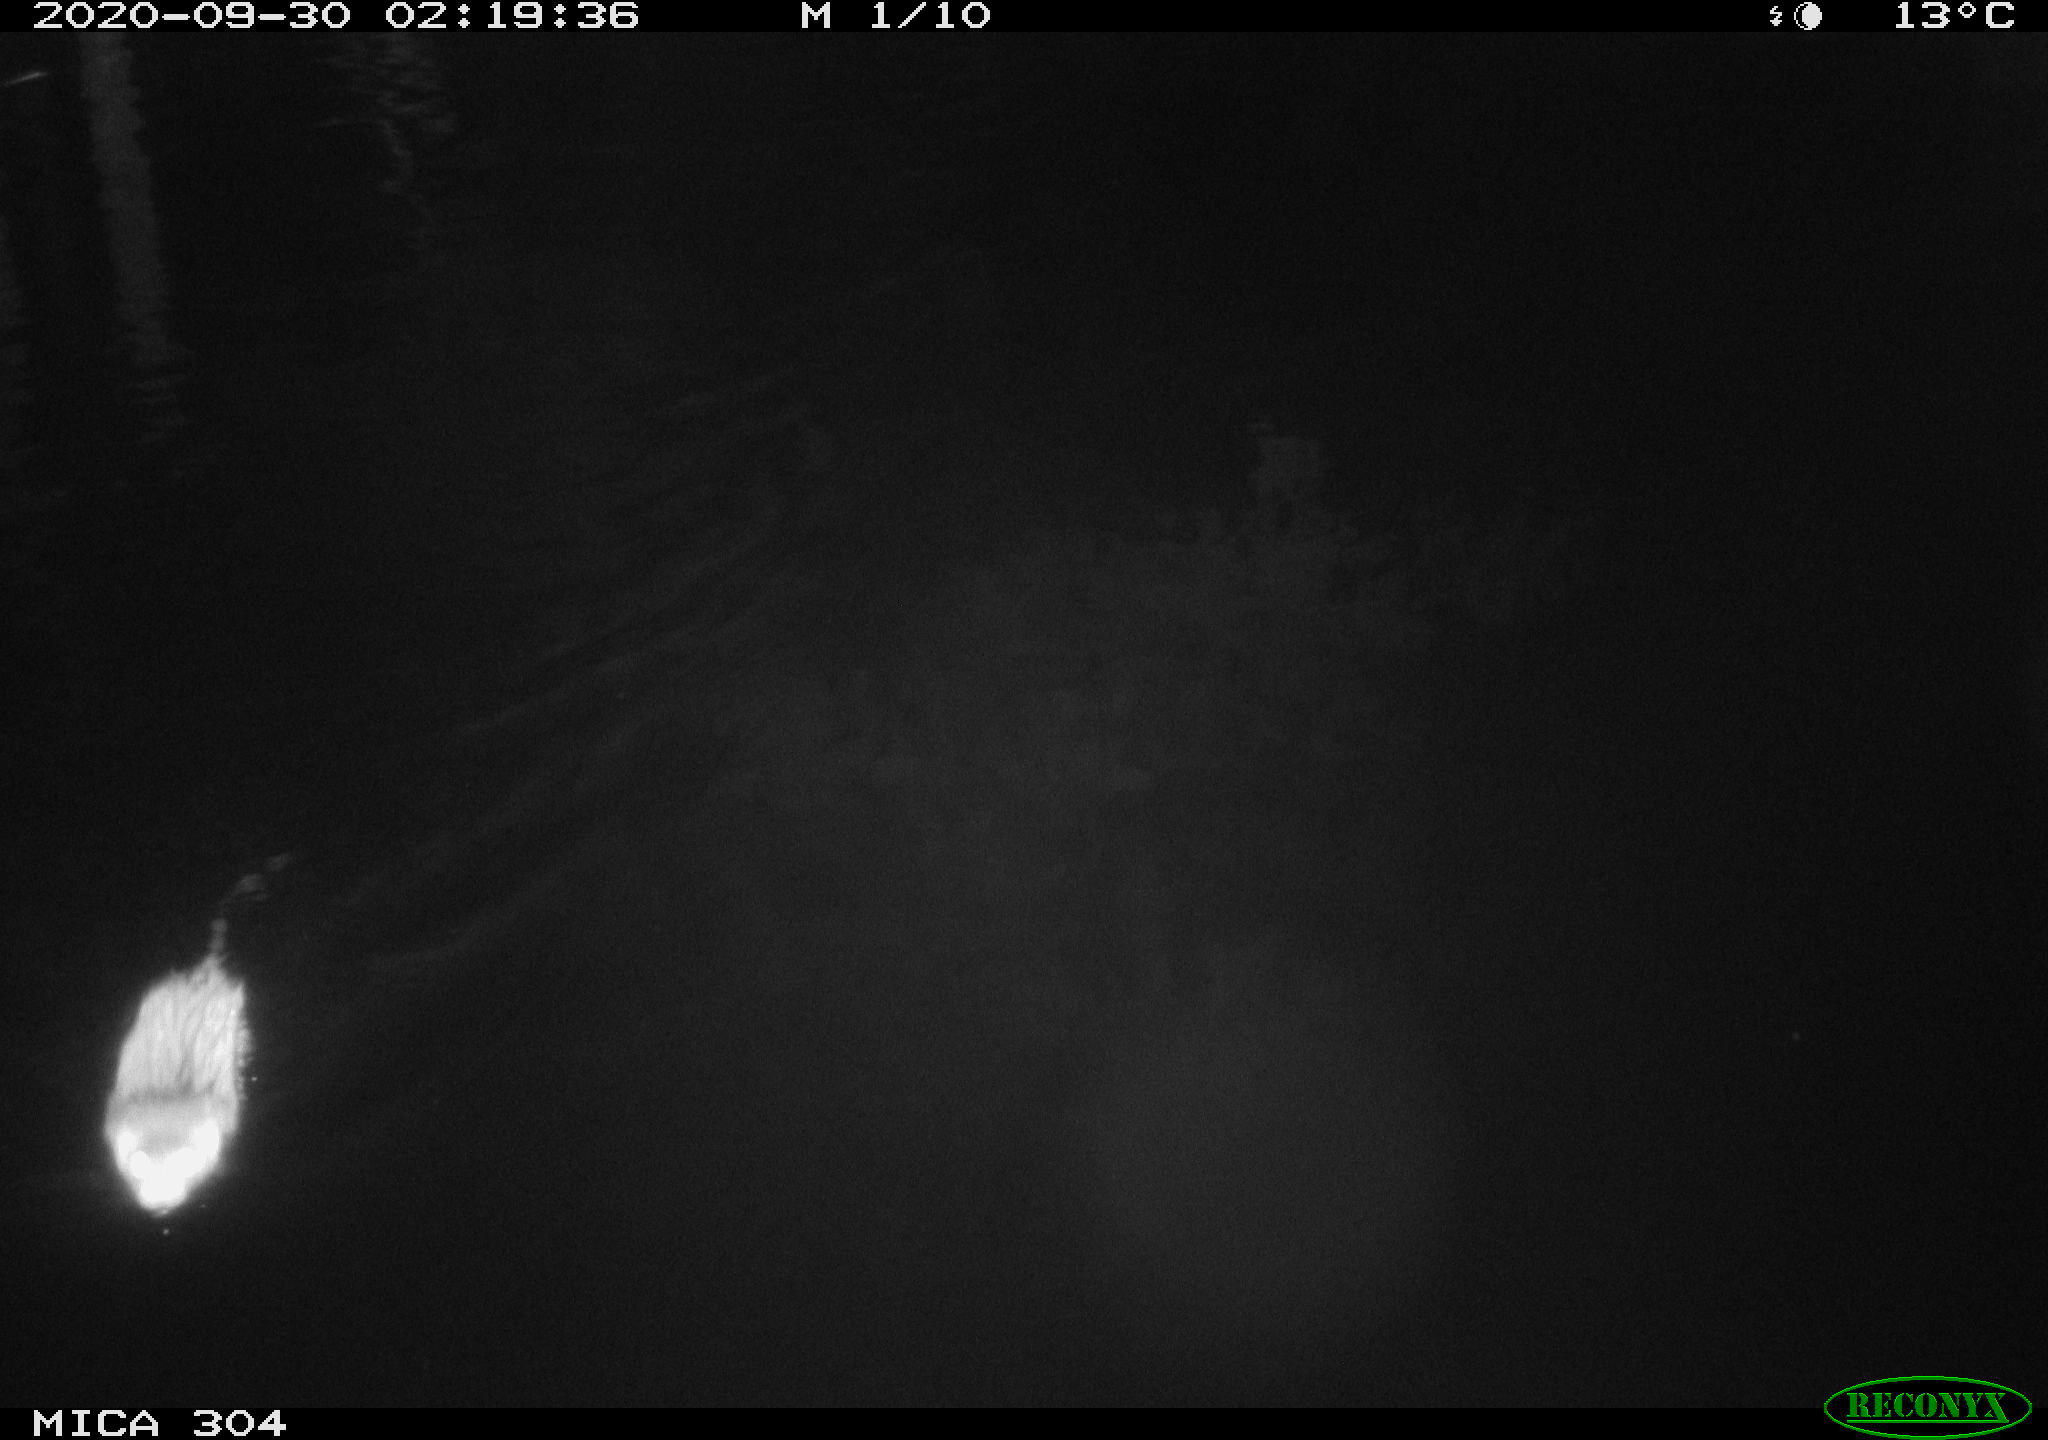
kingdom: Animalia
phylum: Chordata
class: Mammalia
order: Rodentia
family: Cricetidae
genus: Ondatra
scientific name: Ondatra zibethicus
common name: Muskrat
